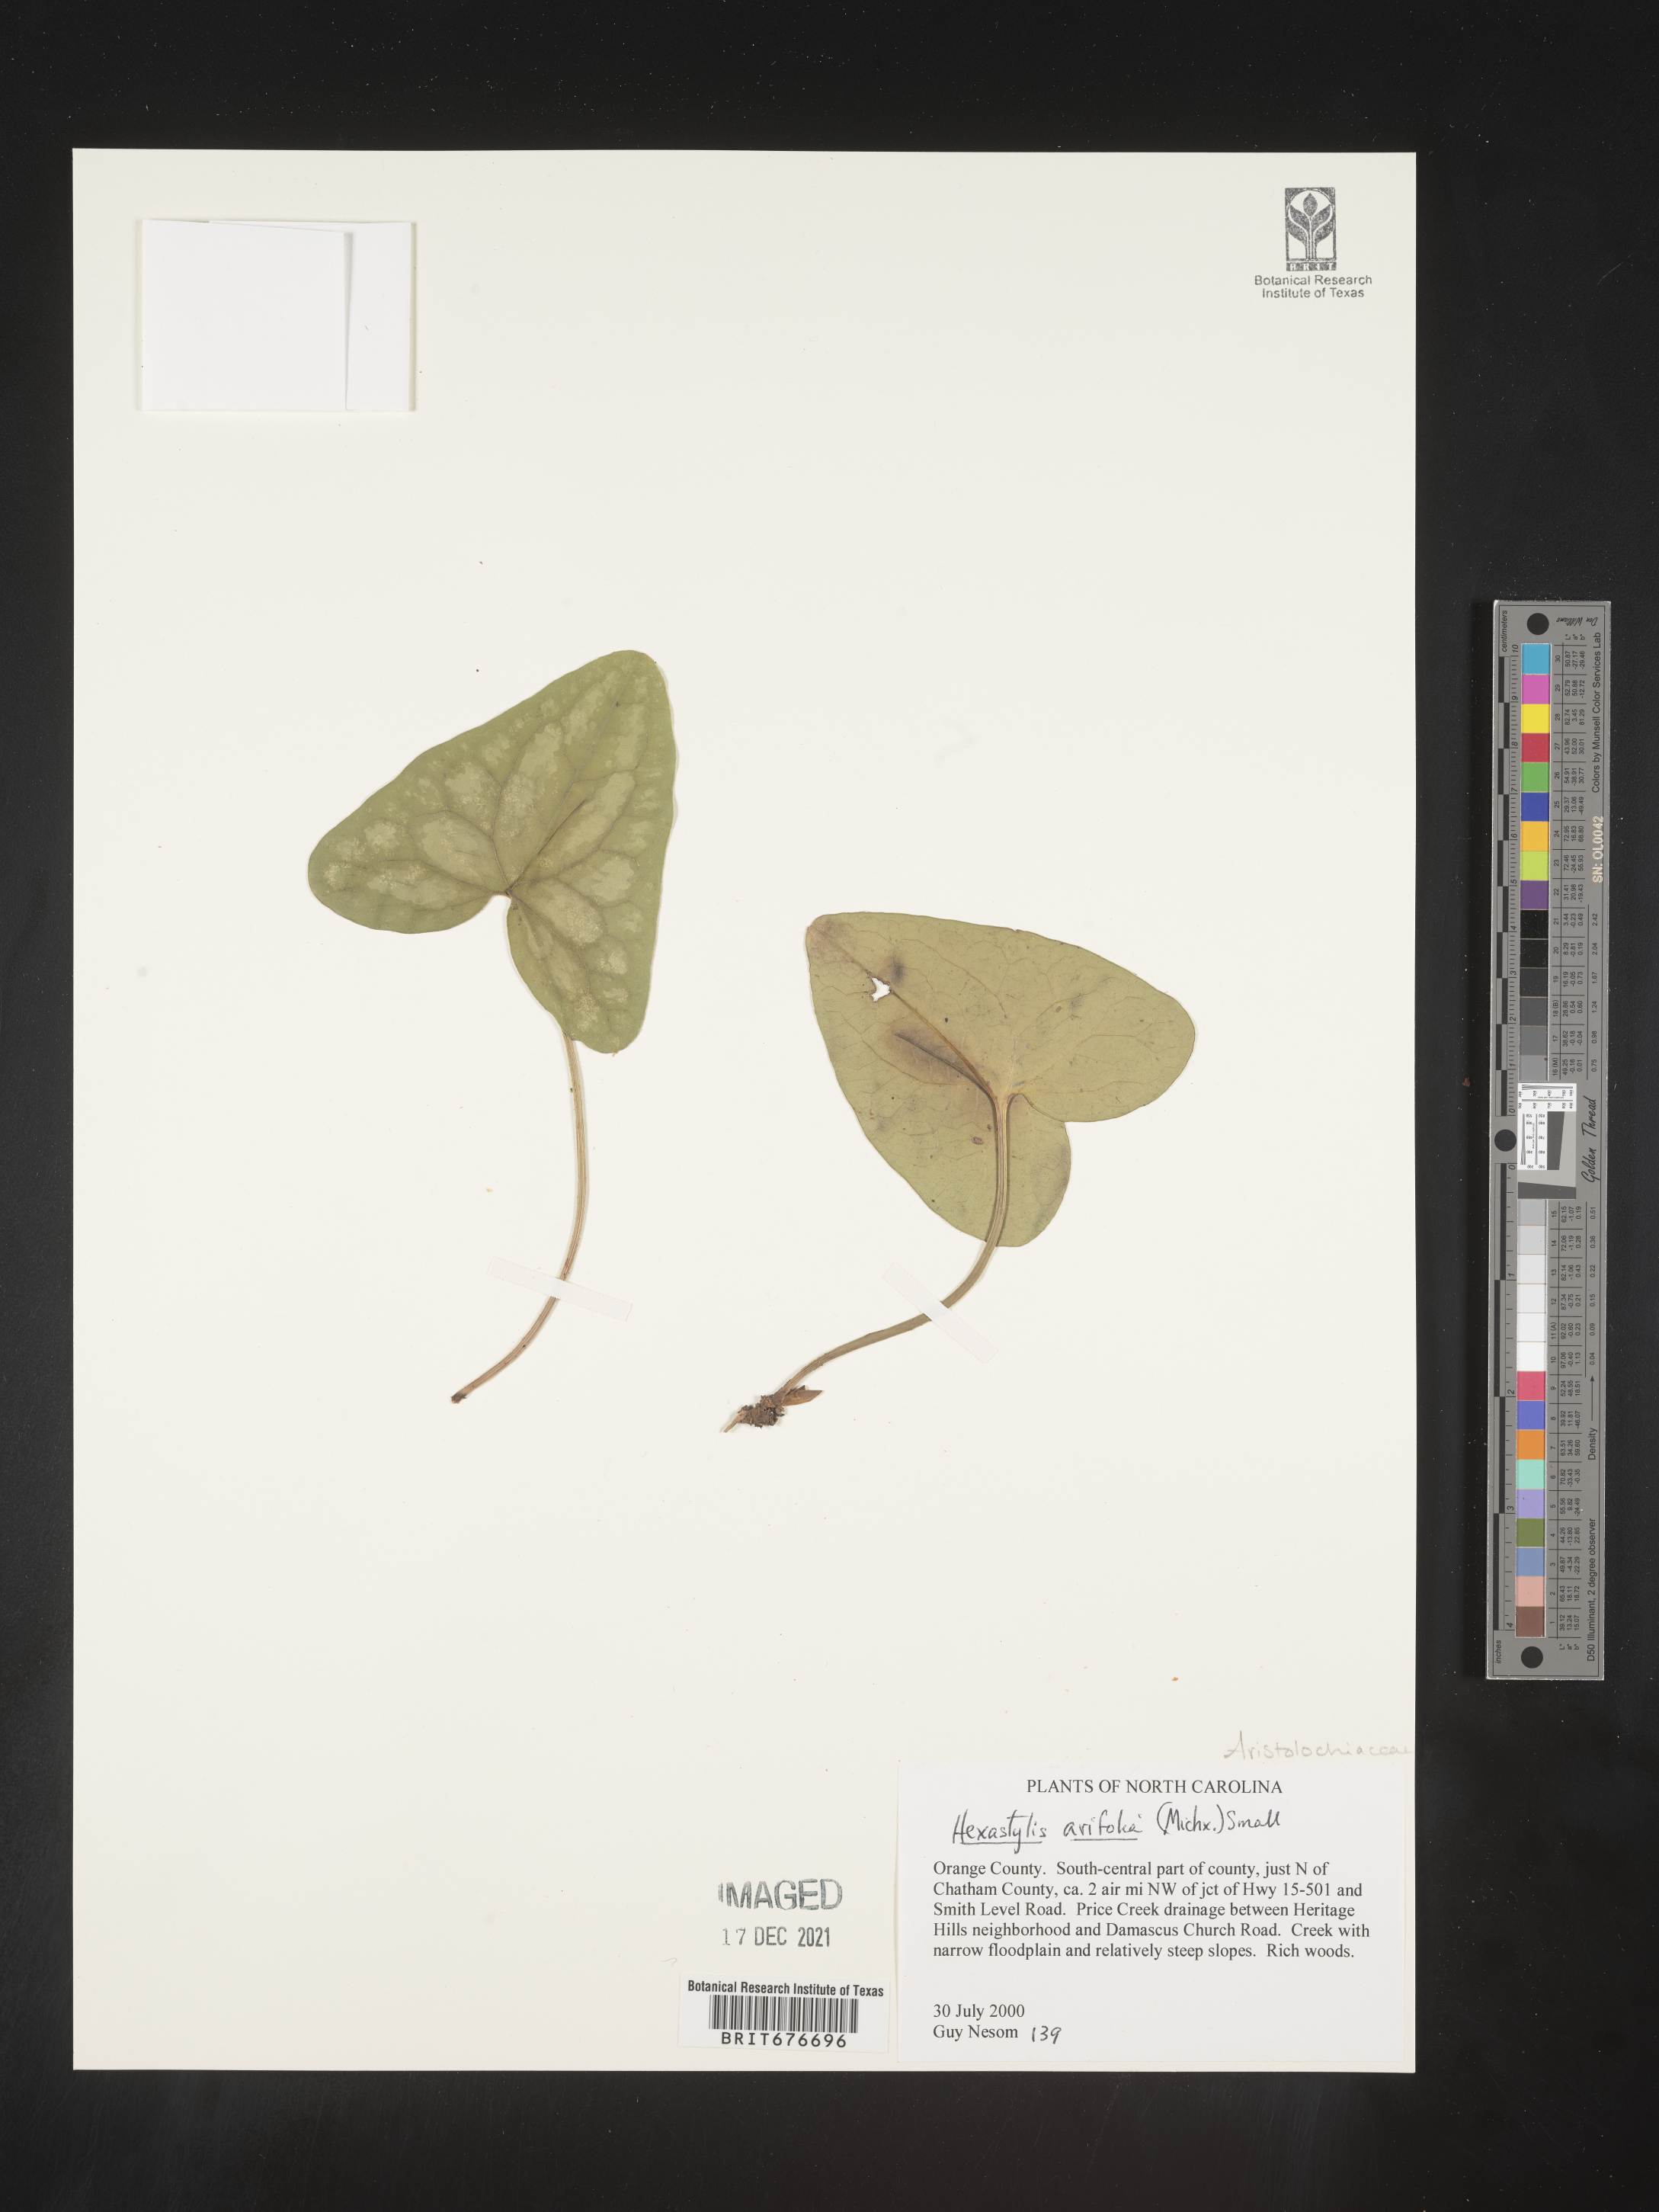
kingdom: Plantae
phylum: Tracheophyta
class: Magnoliopsida
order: Piperales
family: Aristolochiaceae
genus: Hexastylis
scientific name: Hexastylis arifolia
